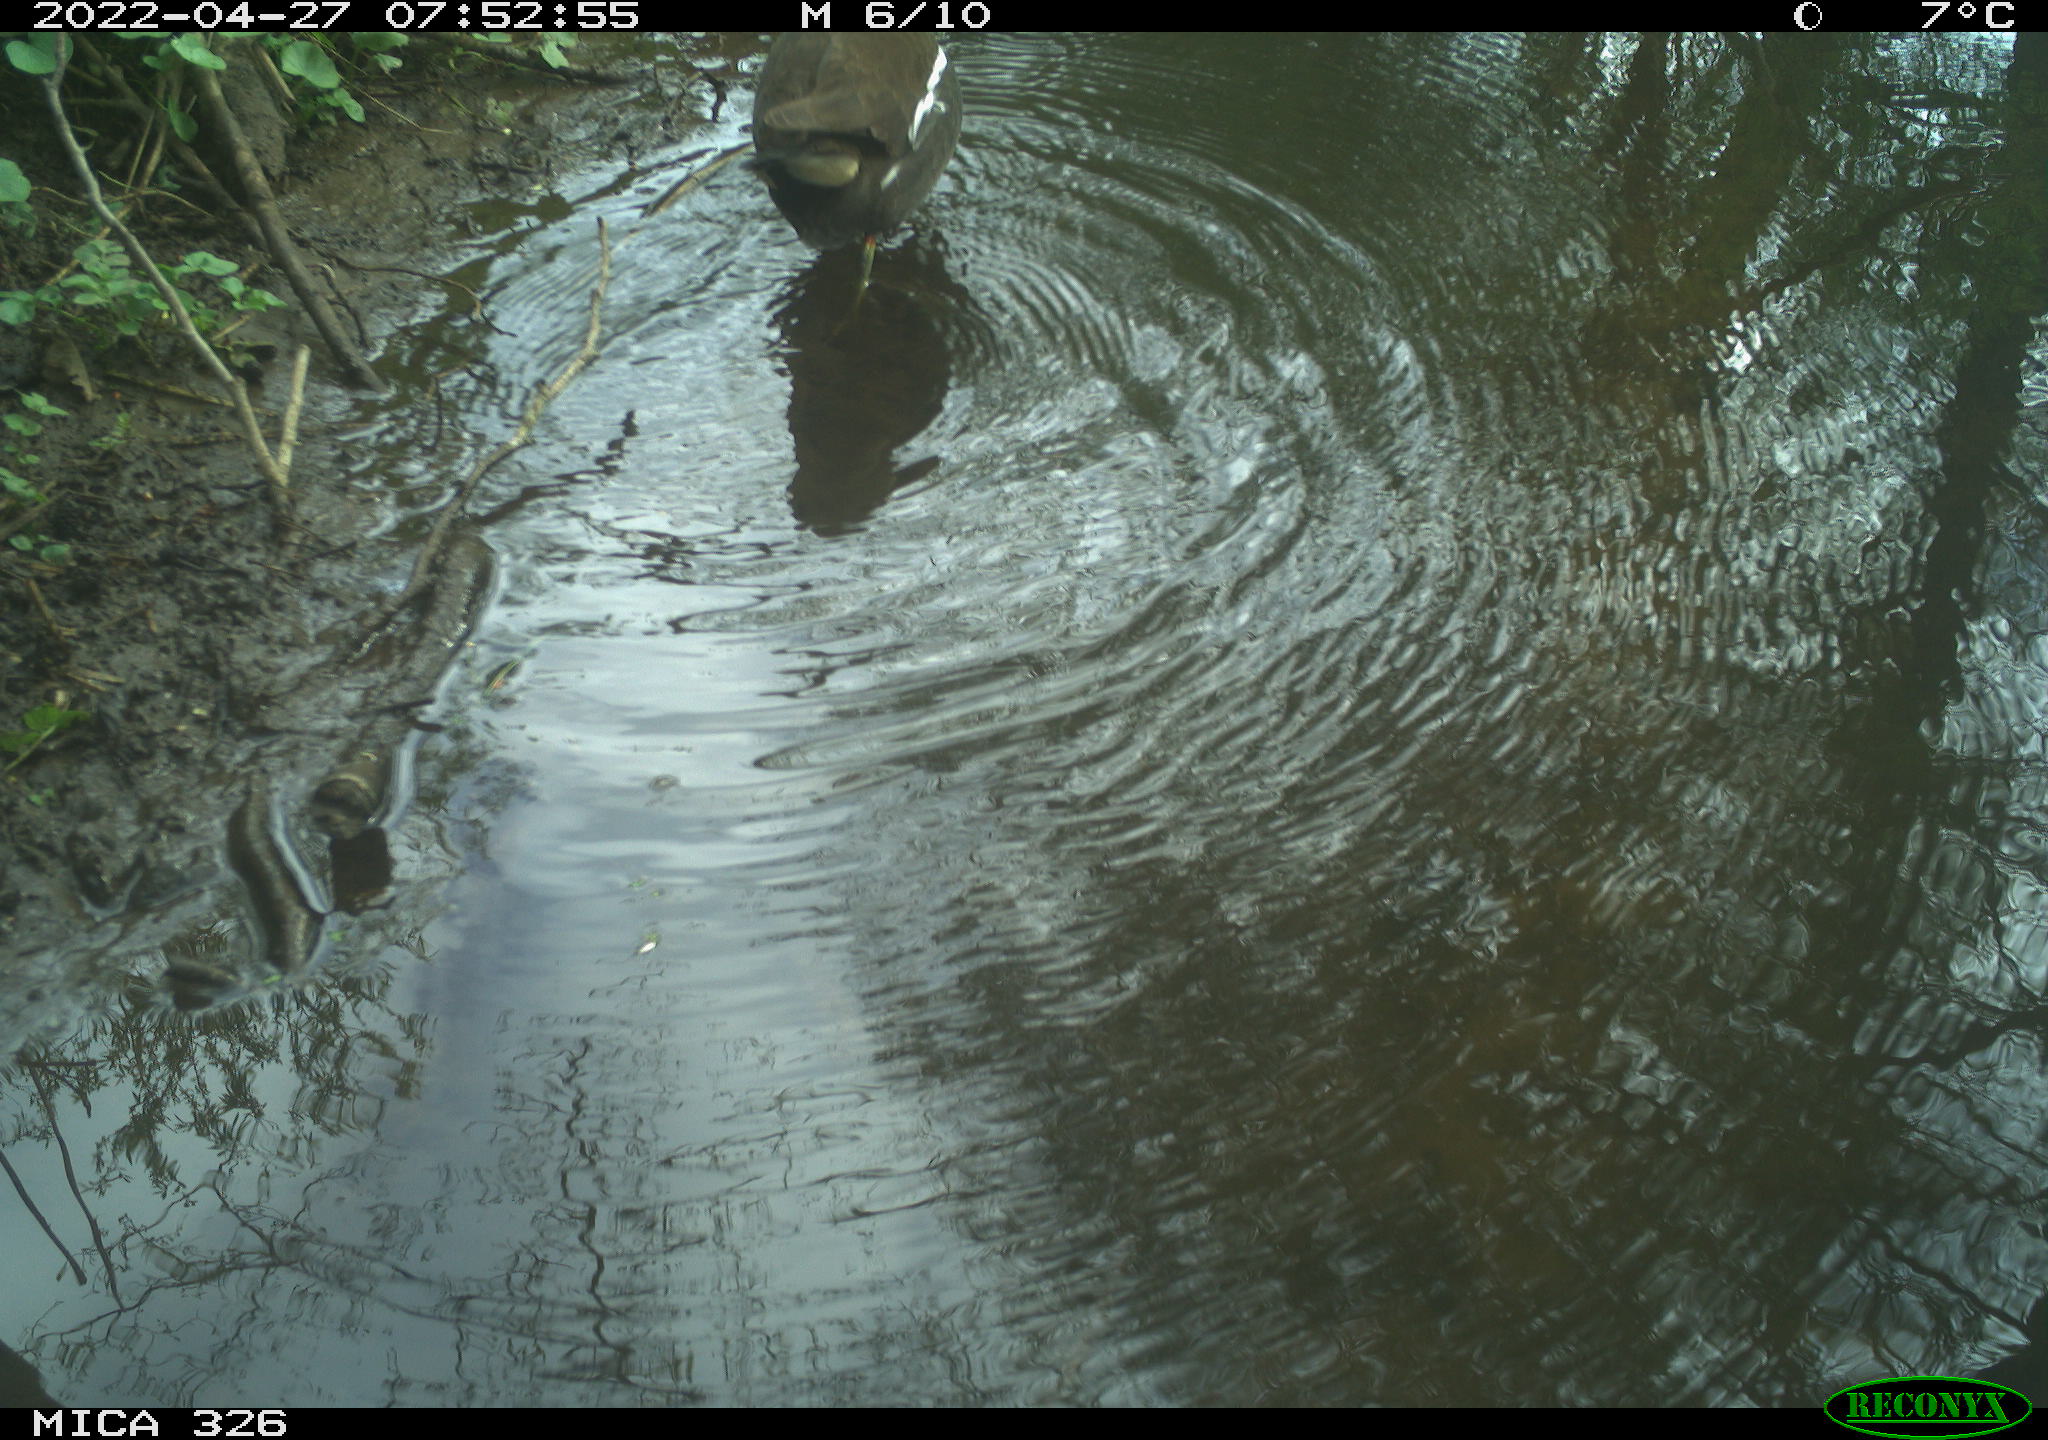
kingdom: Animalia
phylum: Chordata
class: Aves
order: Gruiformes
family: Rallidae
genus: Gallinula
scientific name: Gallinula chloropus
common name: Common moorhen
